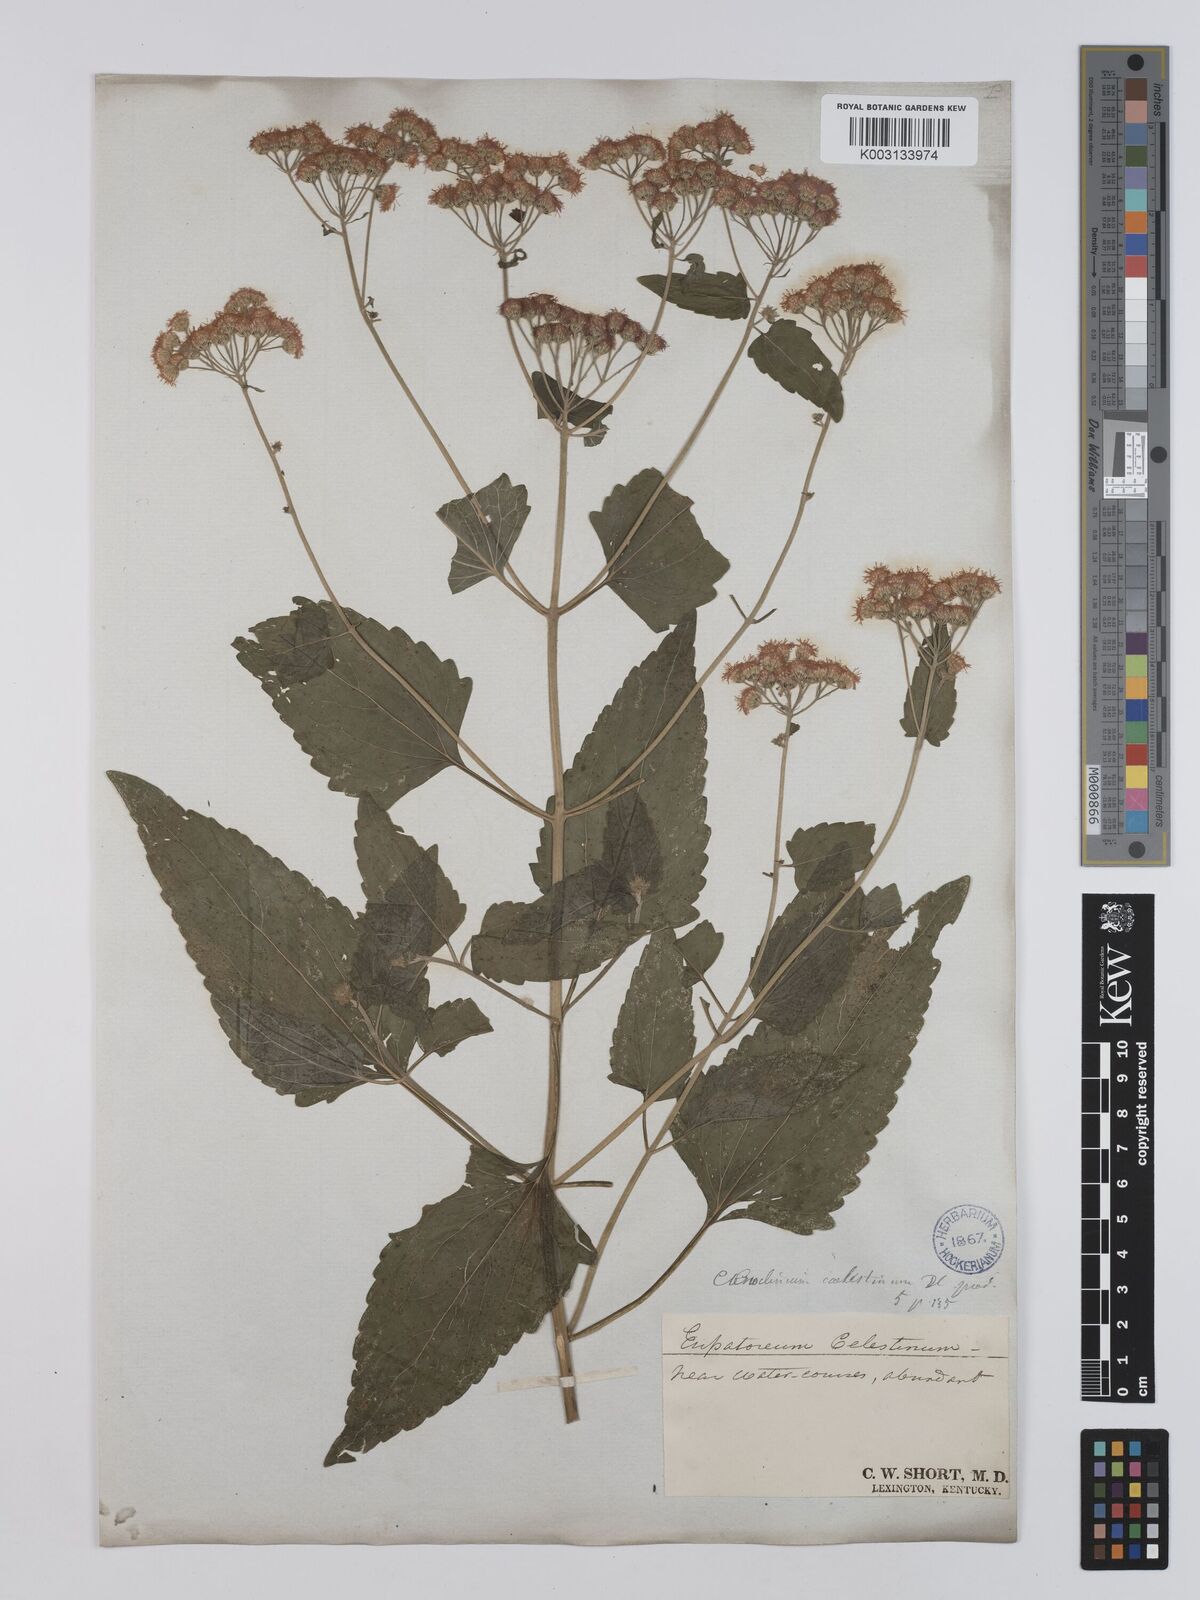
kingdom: Plantae
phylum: Tracheophyta
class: Magnoliopsida
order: Asterales
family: Asteraceae
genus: Conoclinium
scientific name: Conoclinium coelestinum
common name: Blue mistflower
